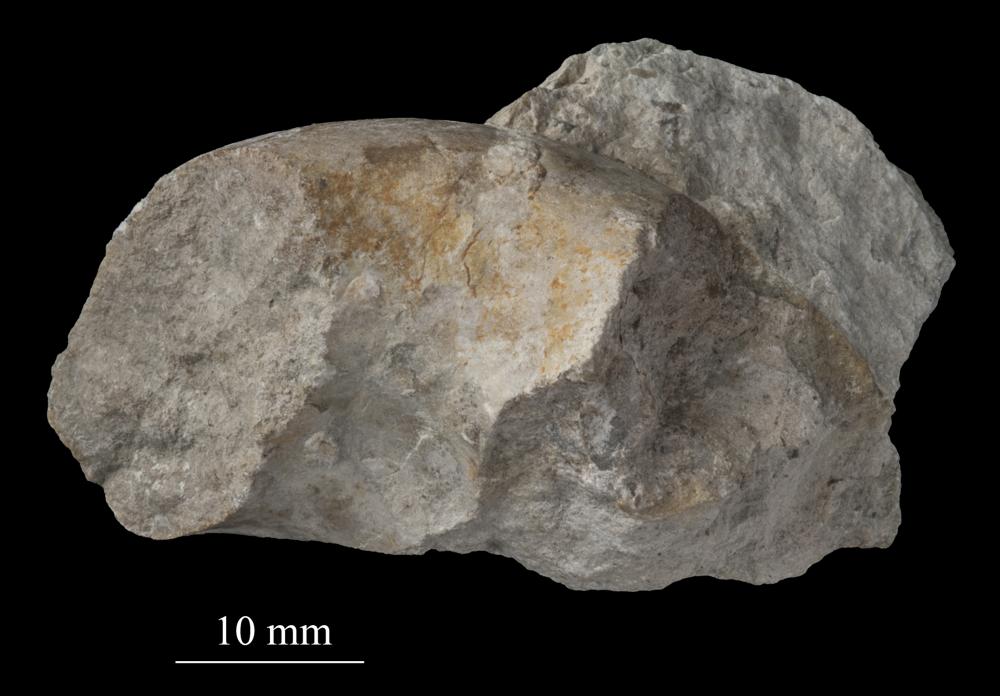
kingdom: Animalia
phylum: Mollusca
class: Gastropoda
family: Bellerophontidae
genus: Bellerophon
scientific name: Bellerophon
